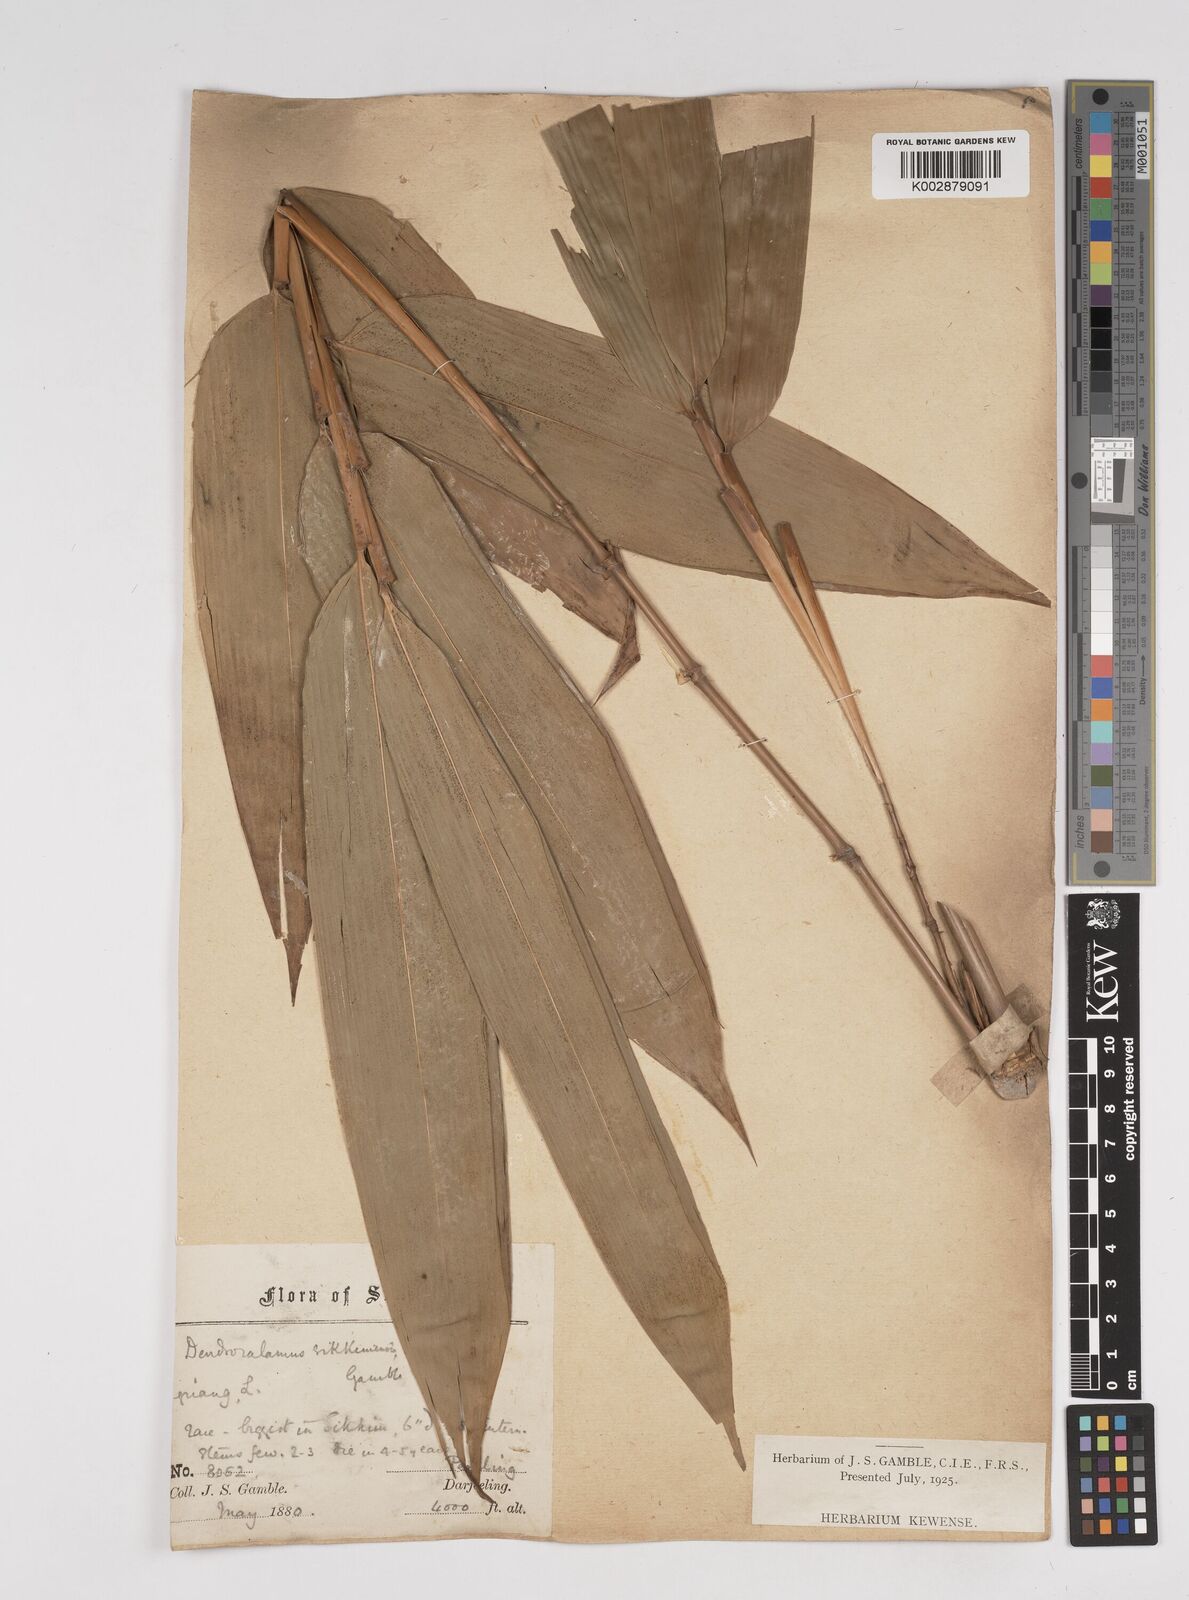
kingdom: Plantae
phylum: Tracheophyta
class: Liliopsida
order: Poales
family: Poaceae
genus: Dendrocalamus
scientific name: Dendrocalamus sikkimensis
